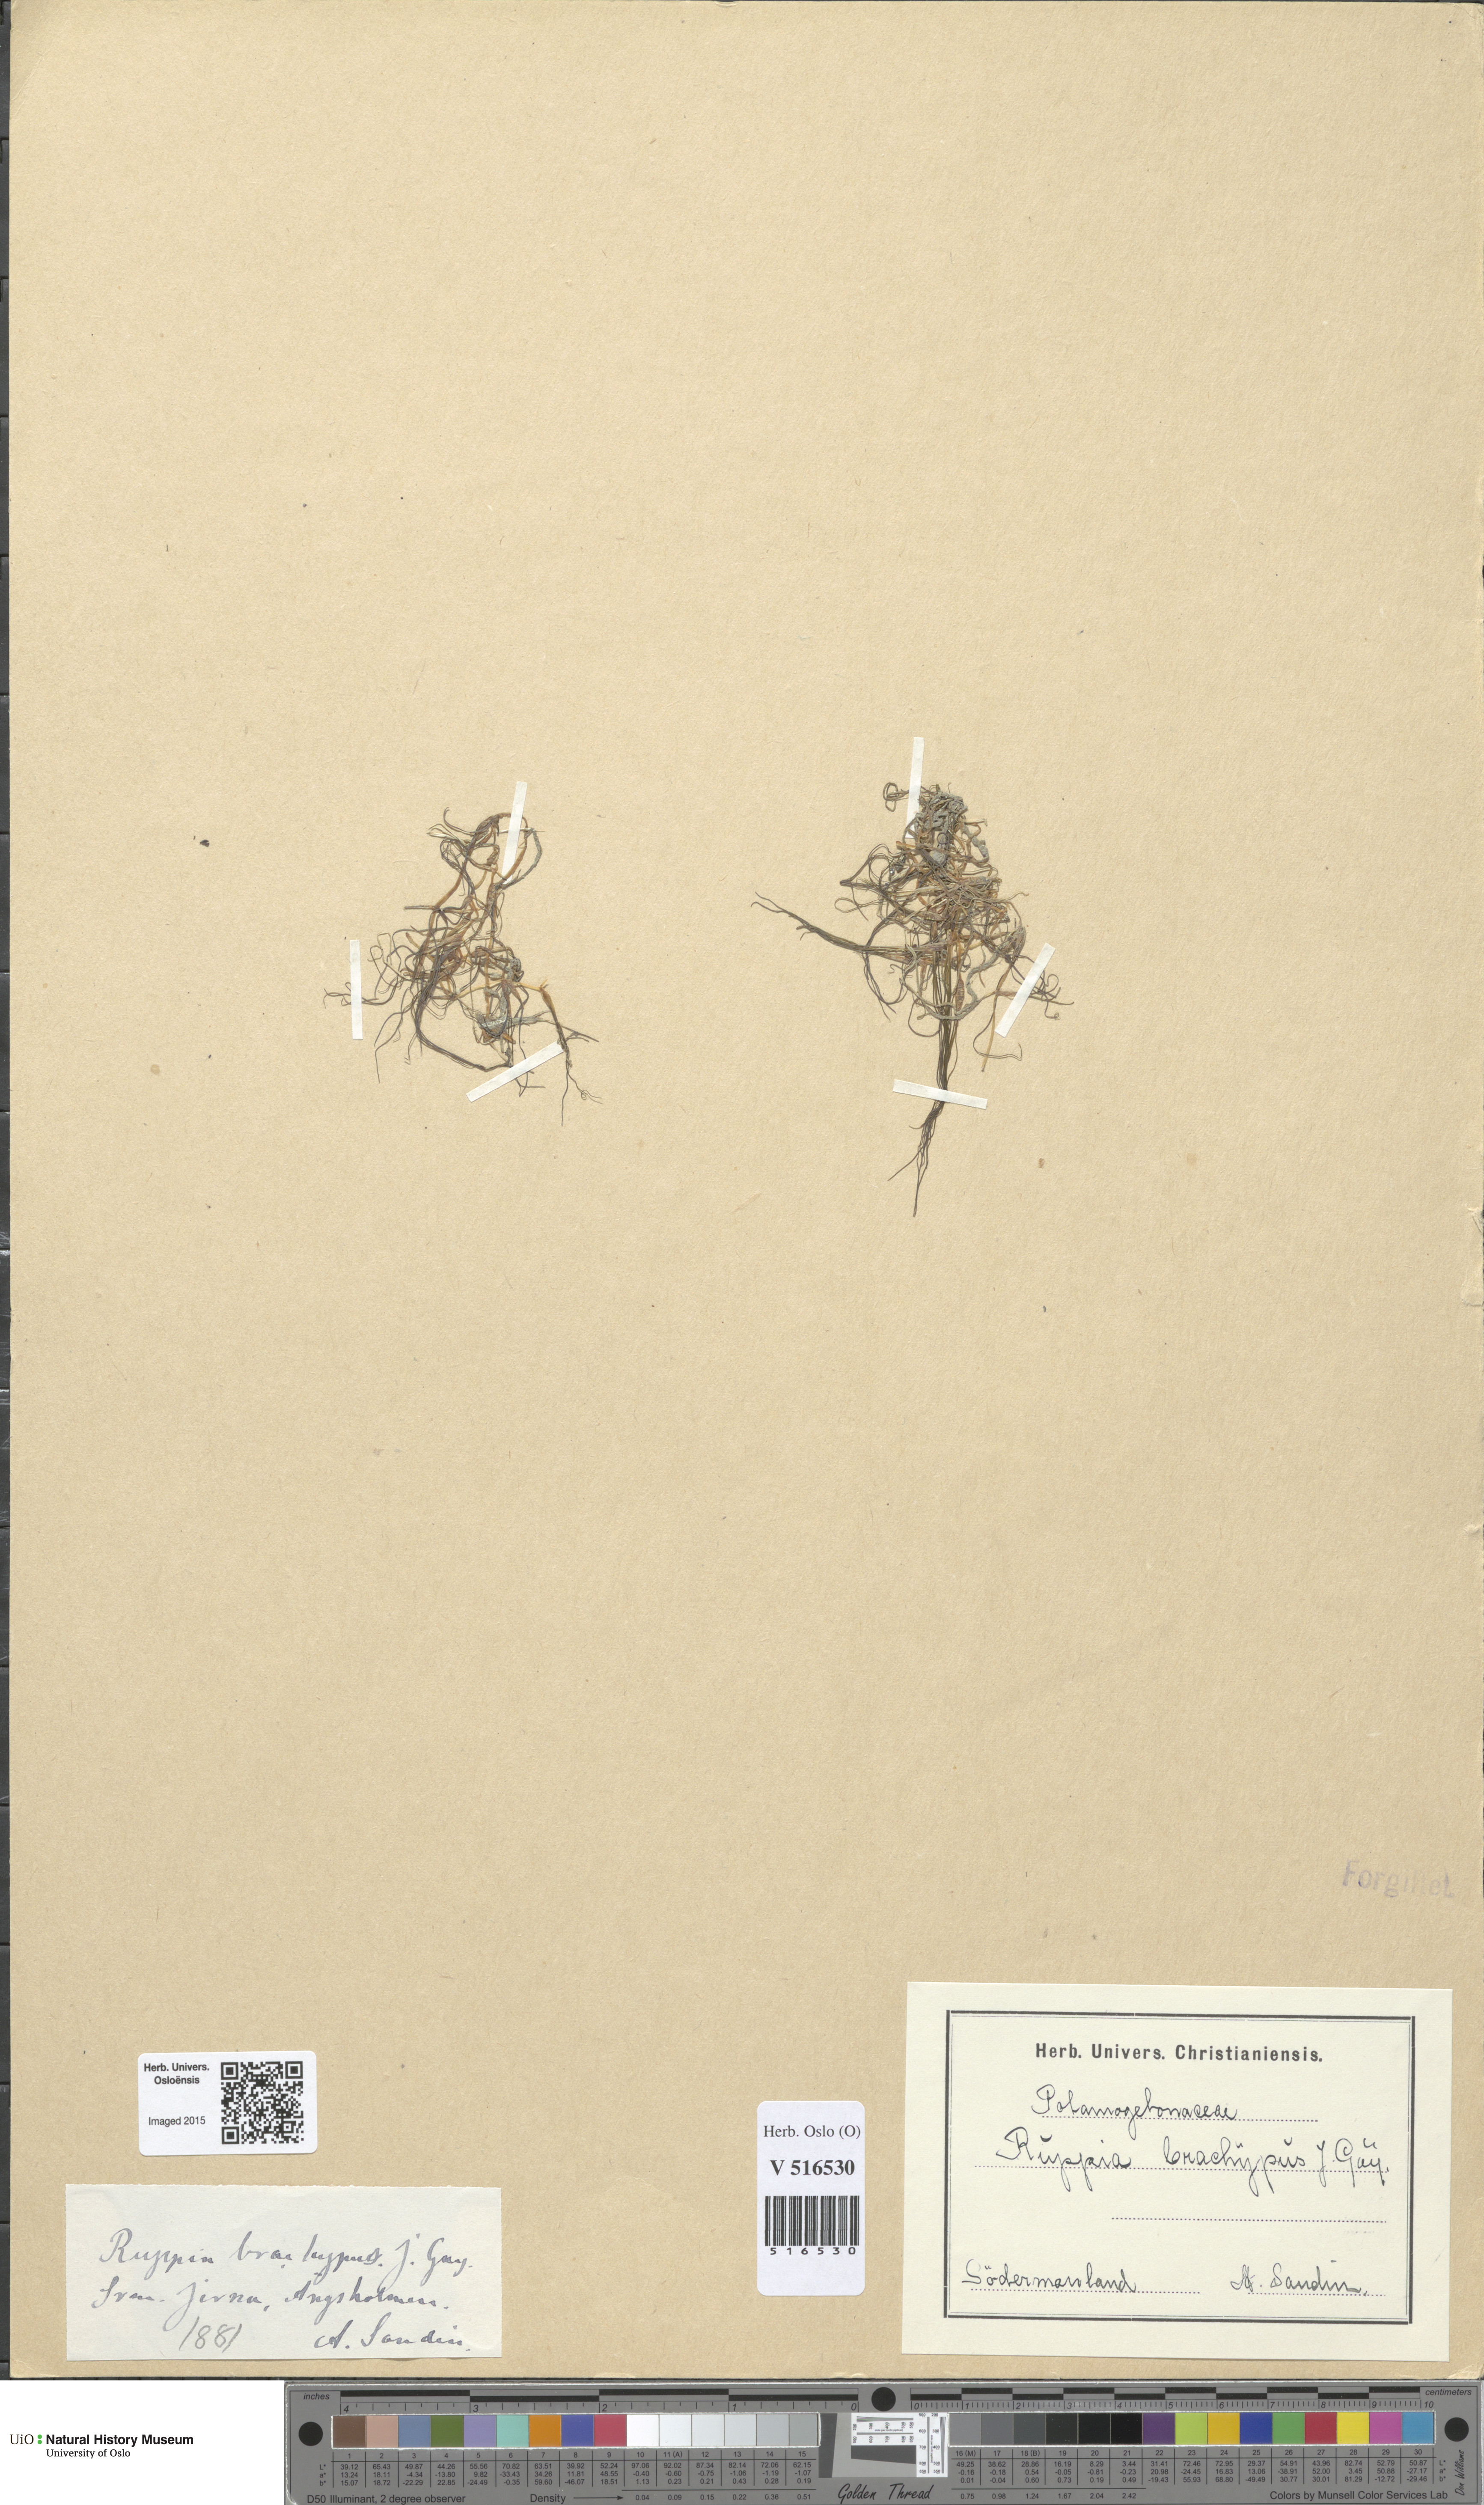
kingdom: Plantae
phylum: Tracheophyta
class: Liliopsida
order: Alismatales
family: Ruppiaceae
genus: Ruppia
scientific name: Ruppia maritima
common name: Beaked tasselweed
